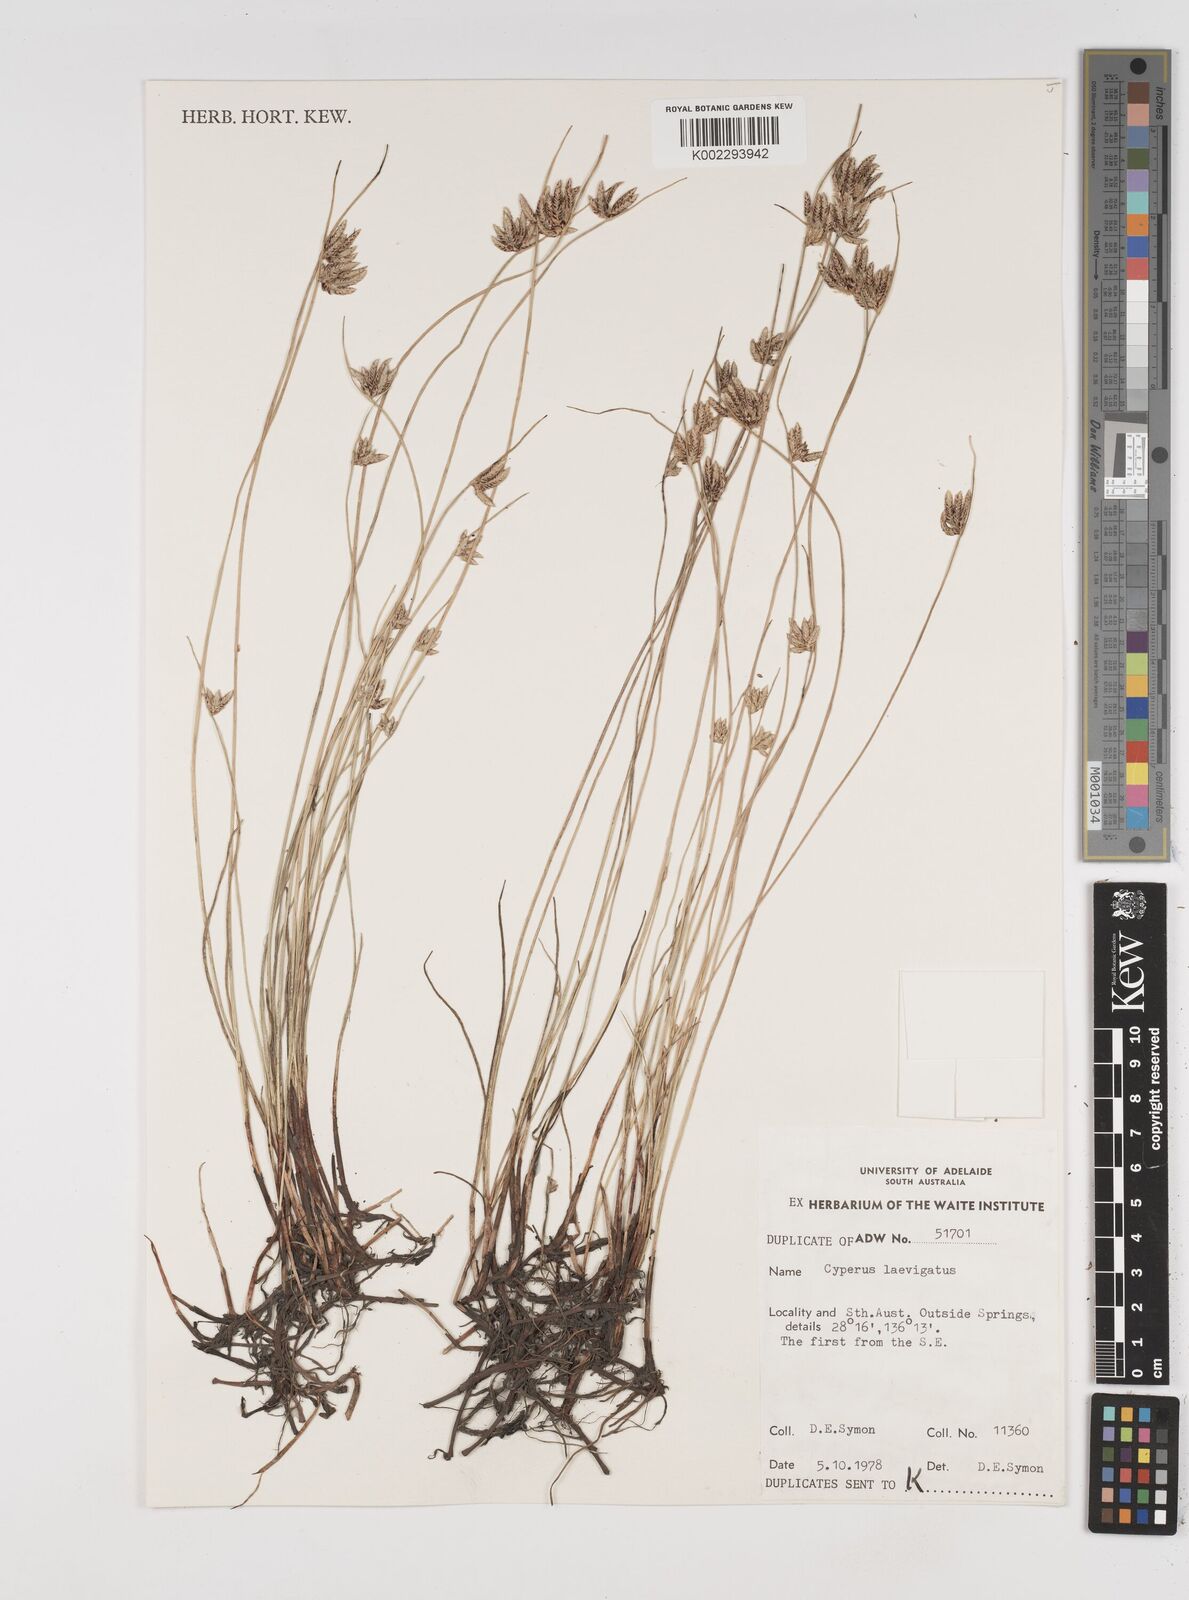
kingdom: Plantae
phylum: Tracheophyta
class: Liliopsida
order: Poales
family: Cyperaceae
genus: Cyperus
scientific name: Cyperus laevigatus
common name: Smooth flat sedge
